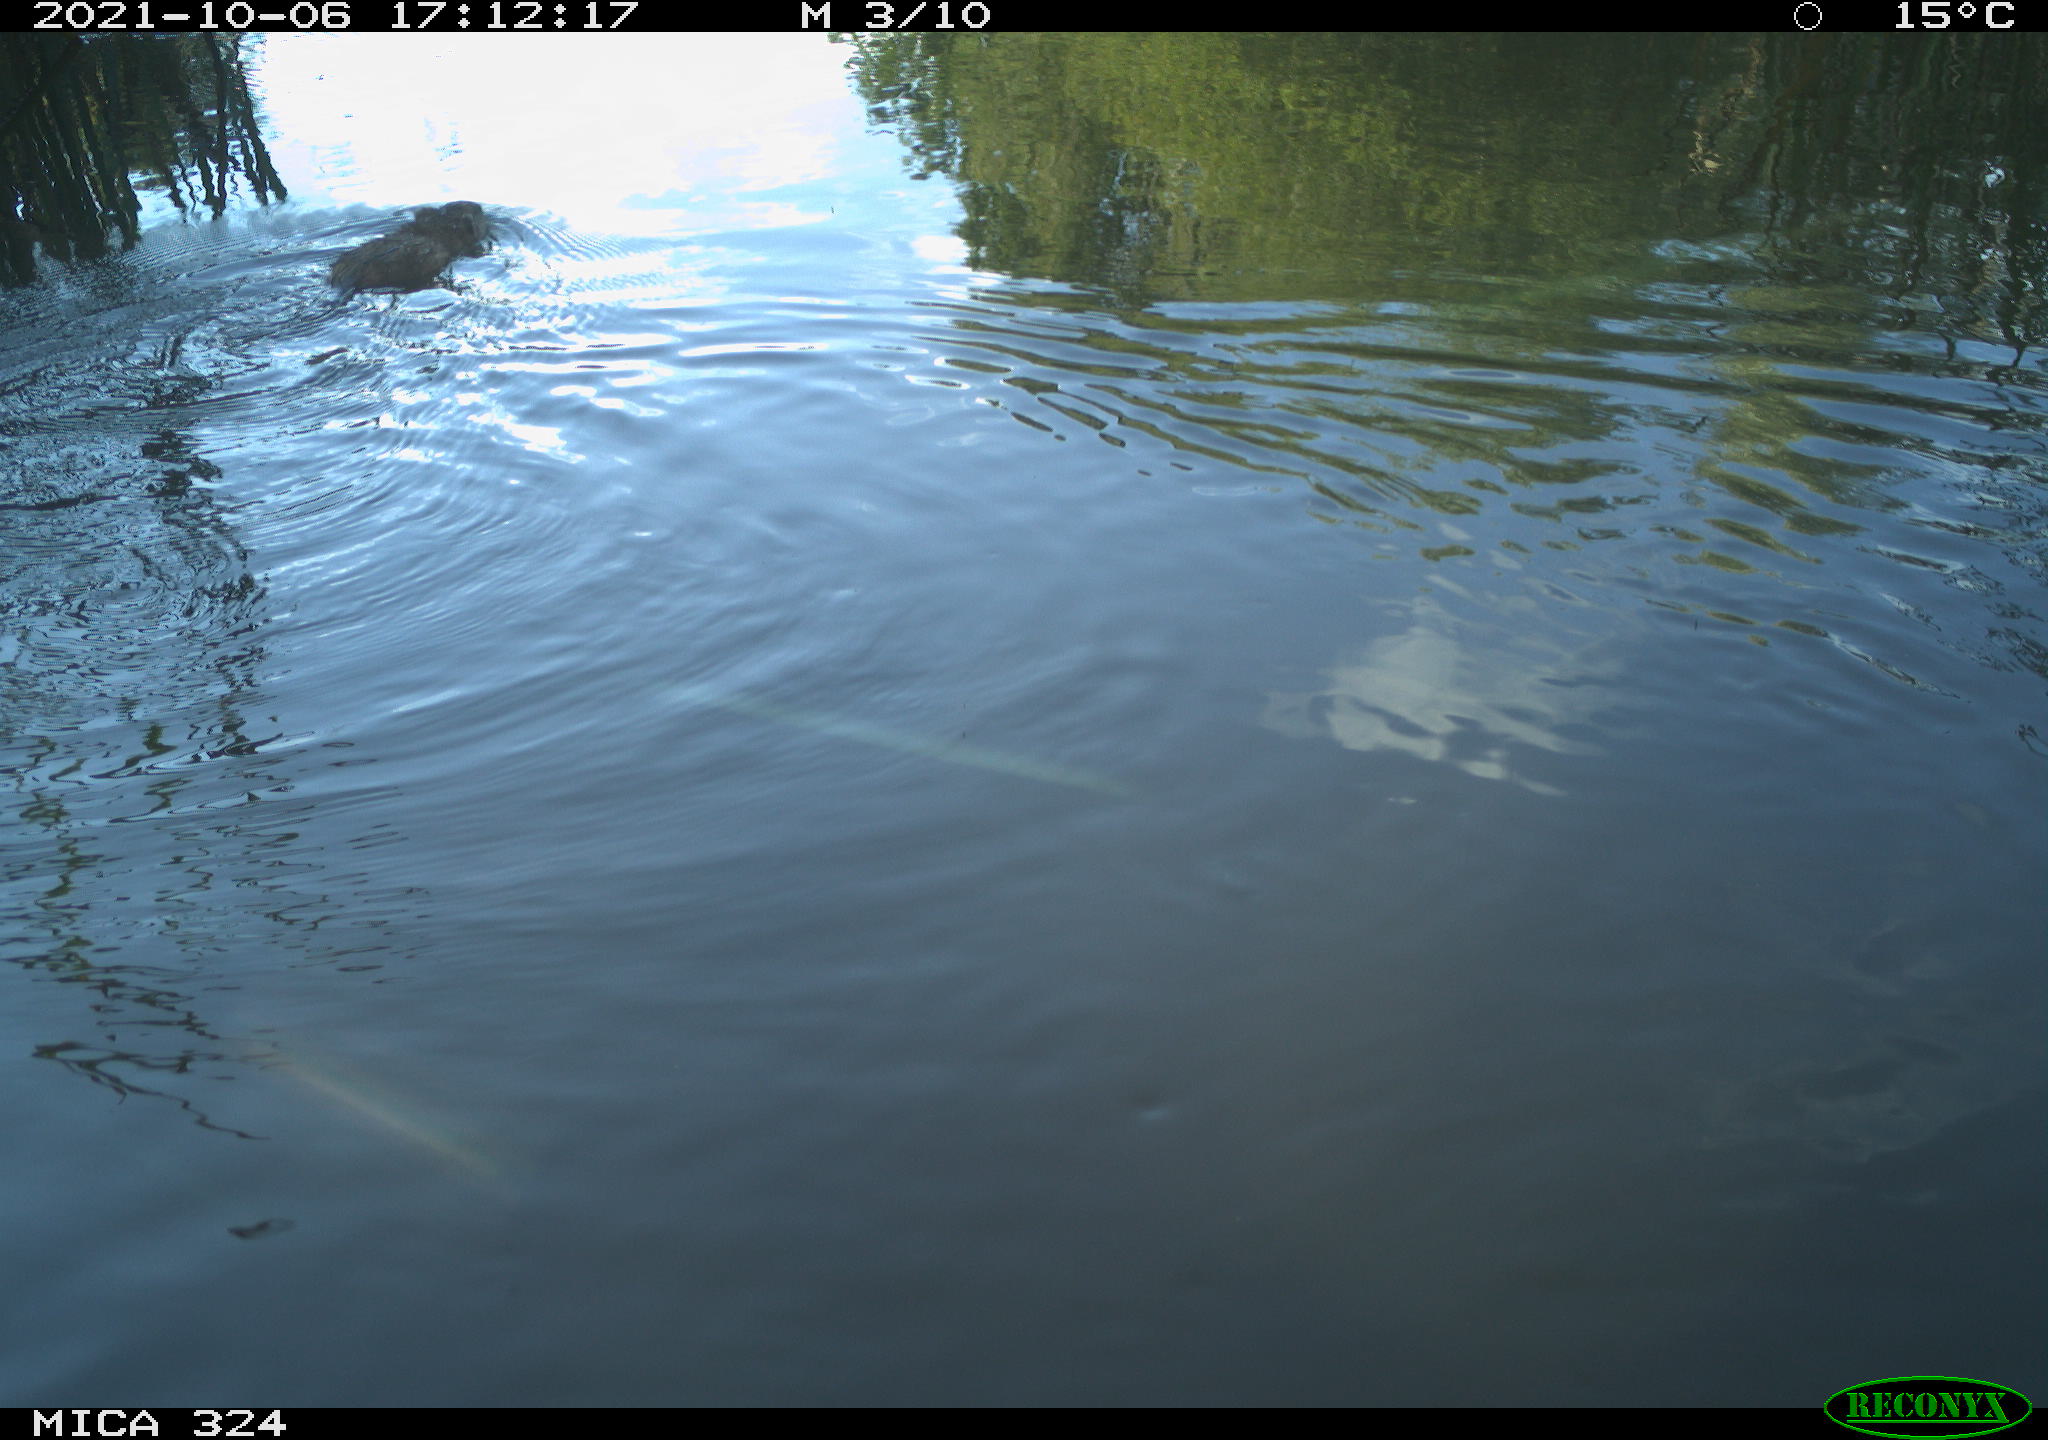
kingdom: Animalia
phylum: Chordata
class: Mammalia
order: Rodentia
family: Cricetidae
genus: Ondatra
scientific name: Ondatra zibethicus
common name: Muskrat
